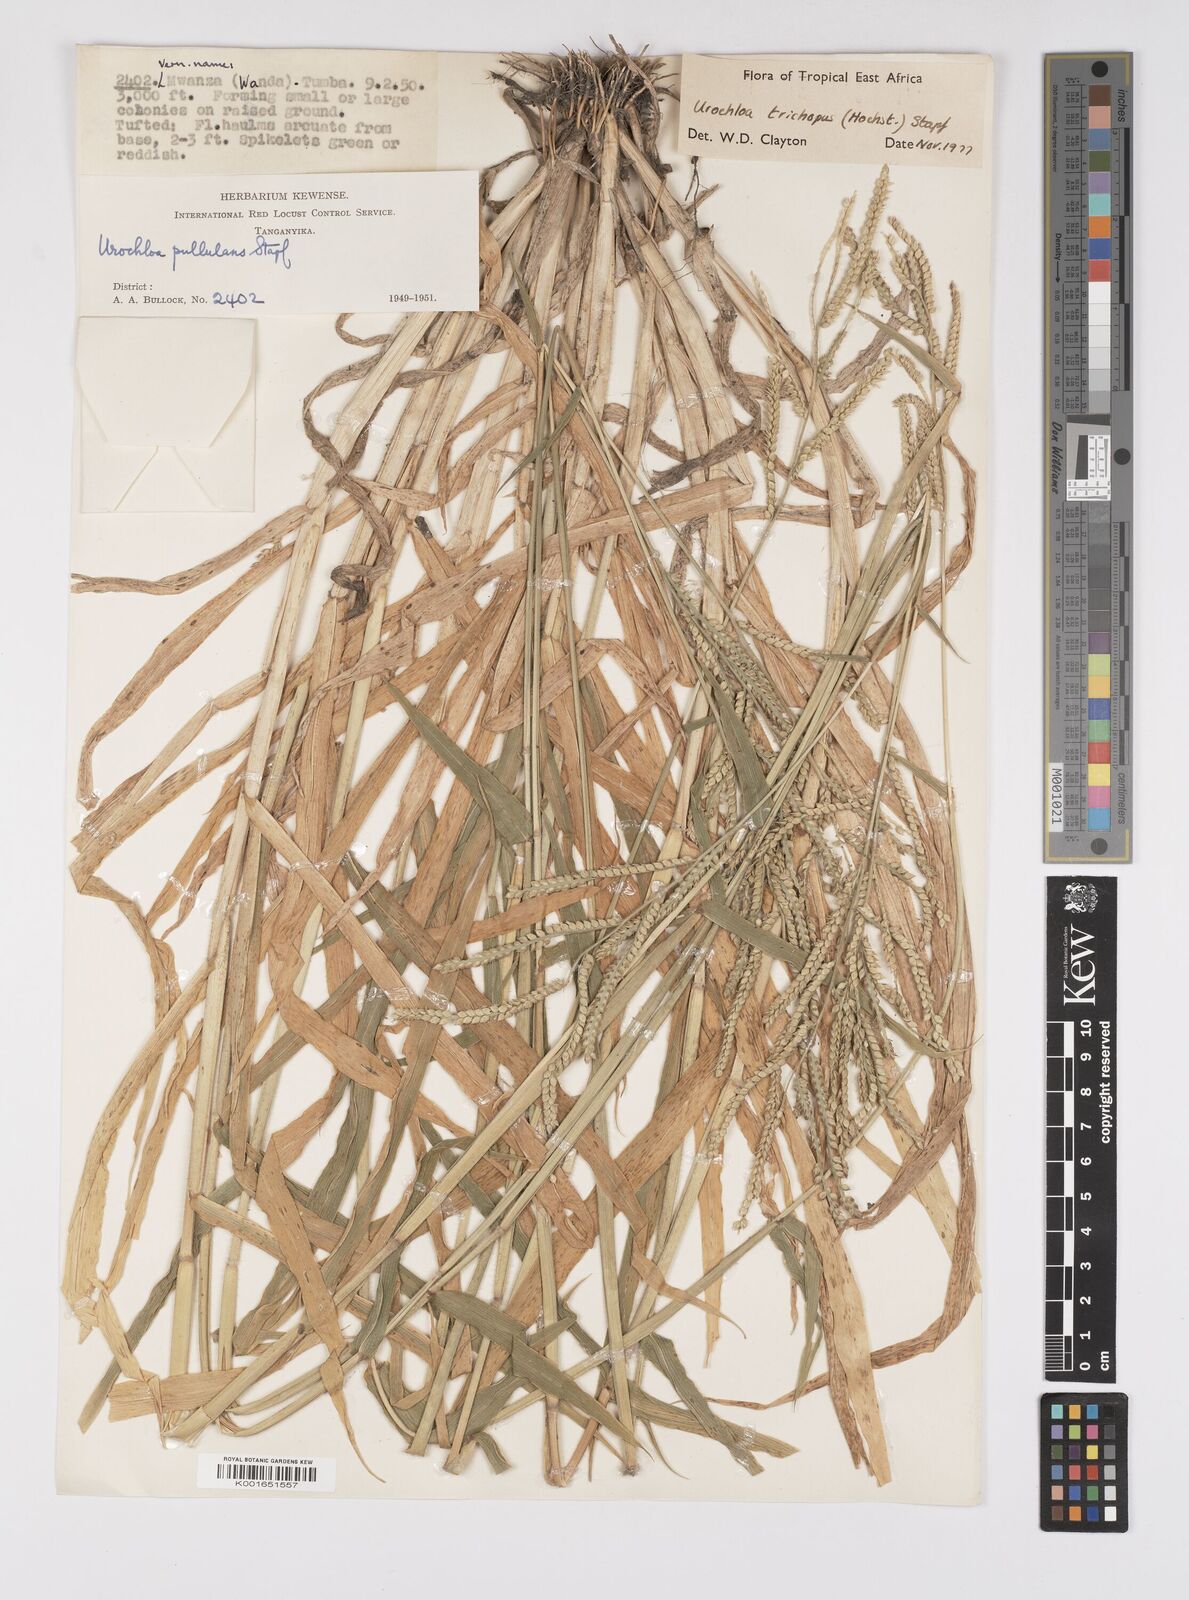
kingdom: Plantae
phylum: Tracheophyta
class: Liliopsida
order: Poales
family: Poaceae
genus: Urochloa
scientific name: Urochloa trichopus
